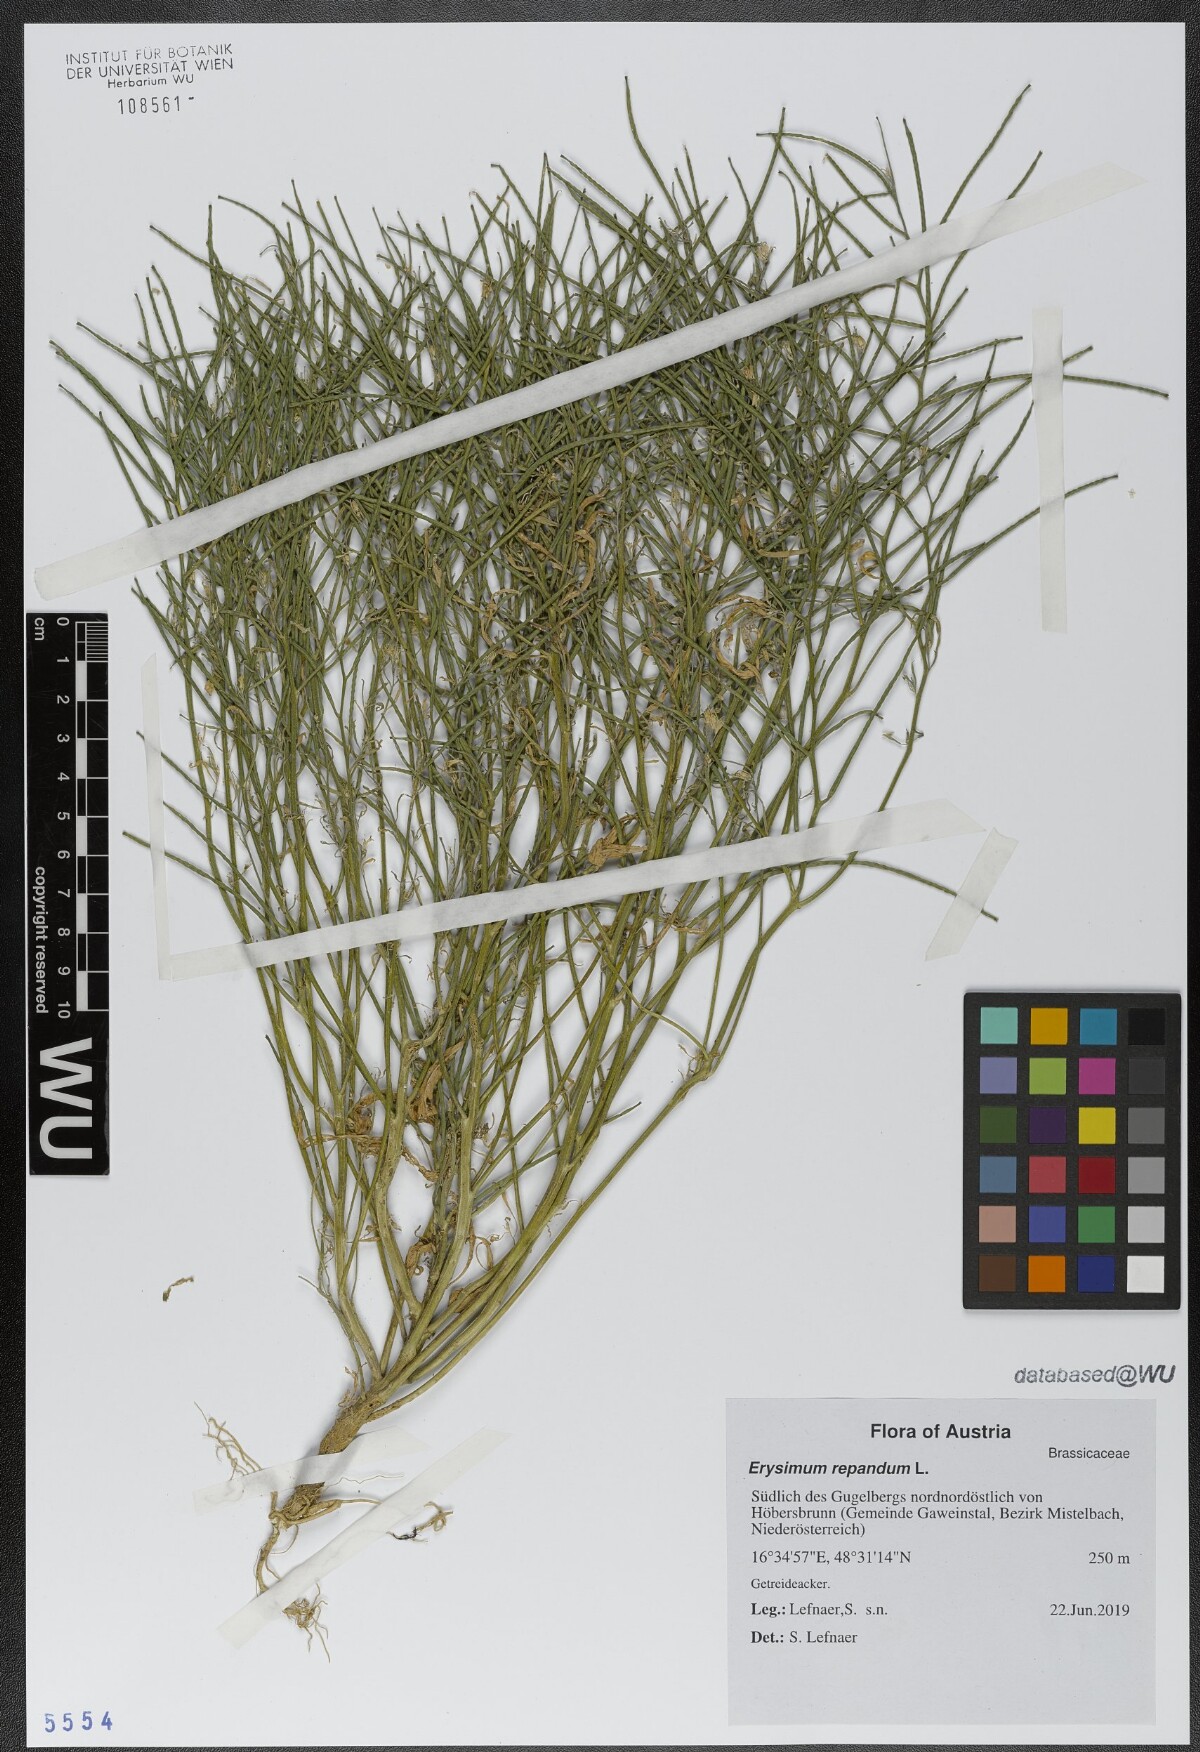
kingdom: Plantae
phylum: Tracheophyta
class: Magnoliopsida
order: Brassicales
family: Brassicaceae
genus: Erysimum
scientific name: Erysimum repandum
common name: Spreading wallflower
